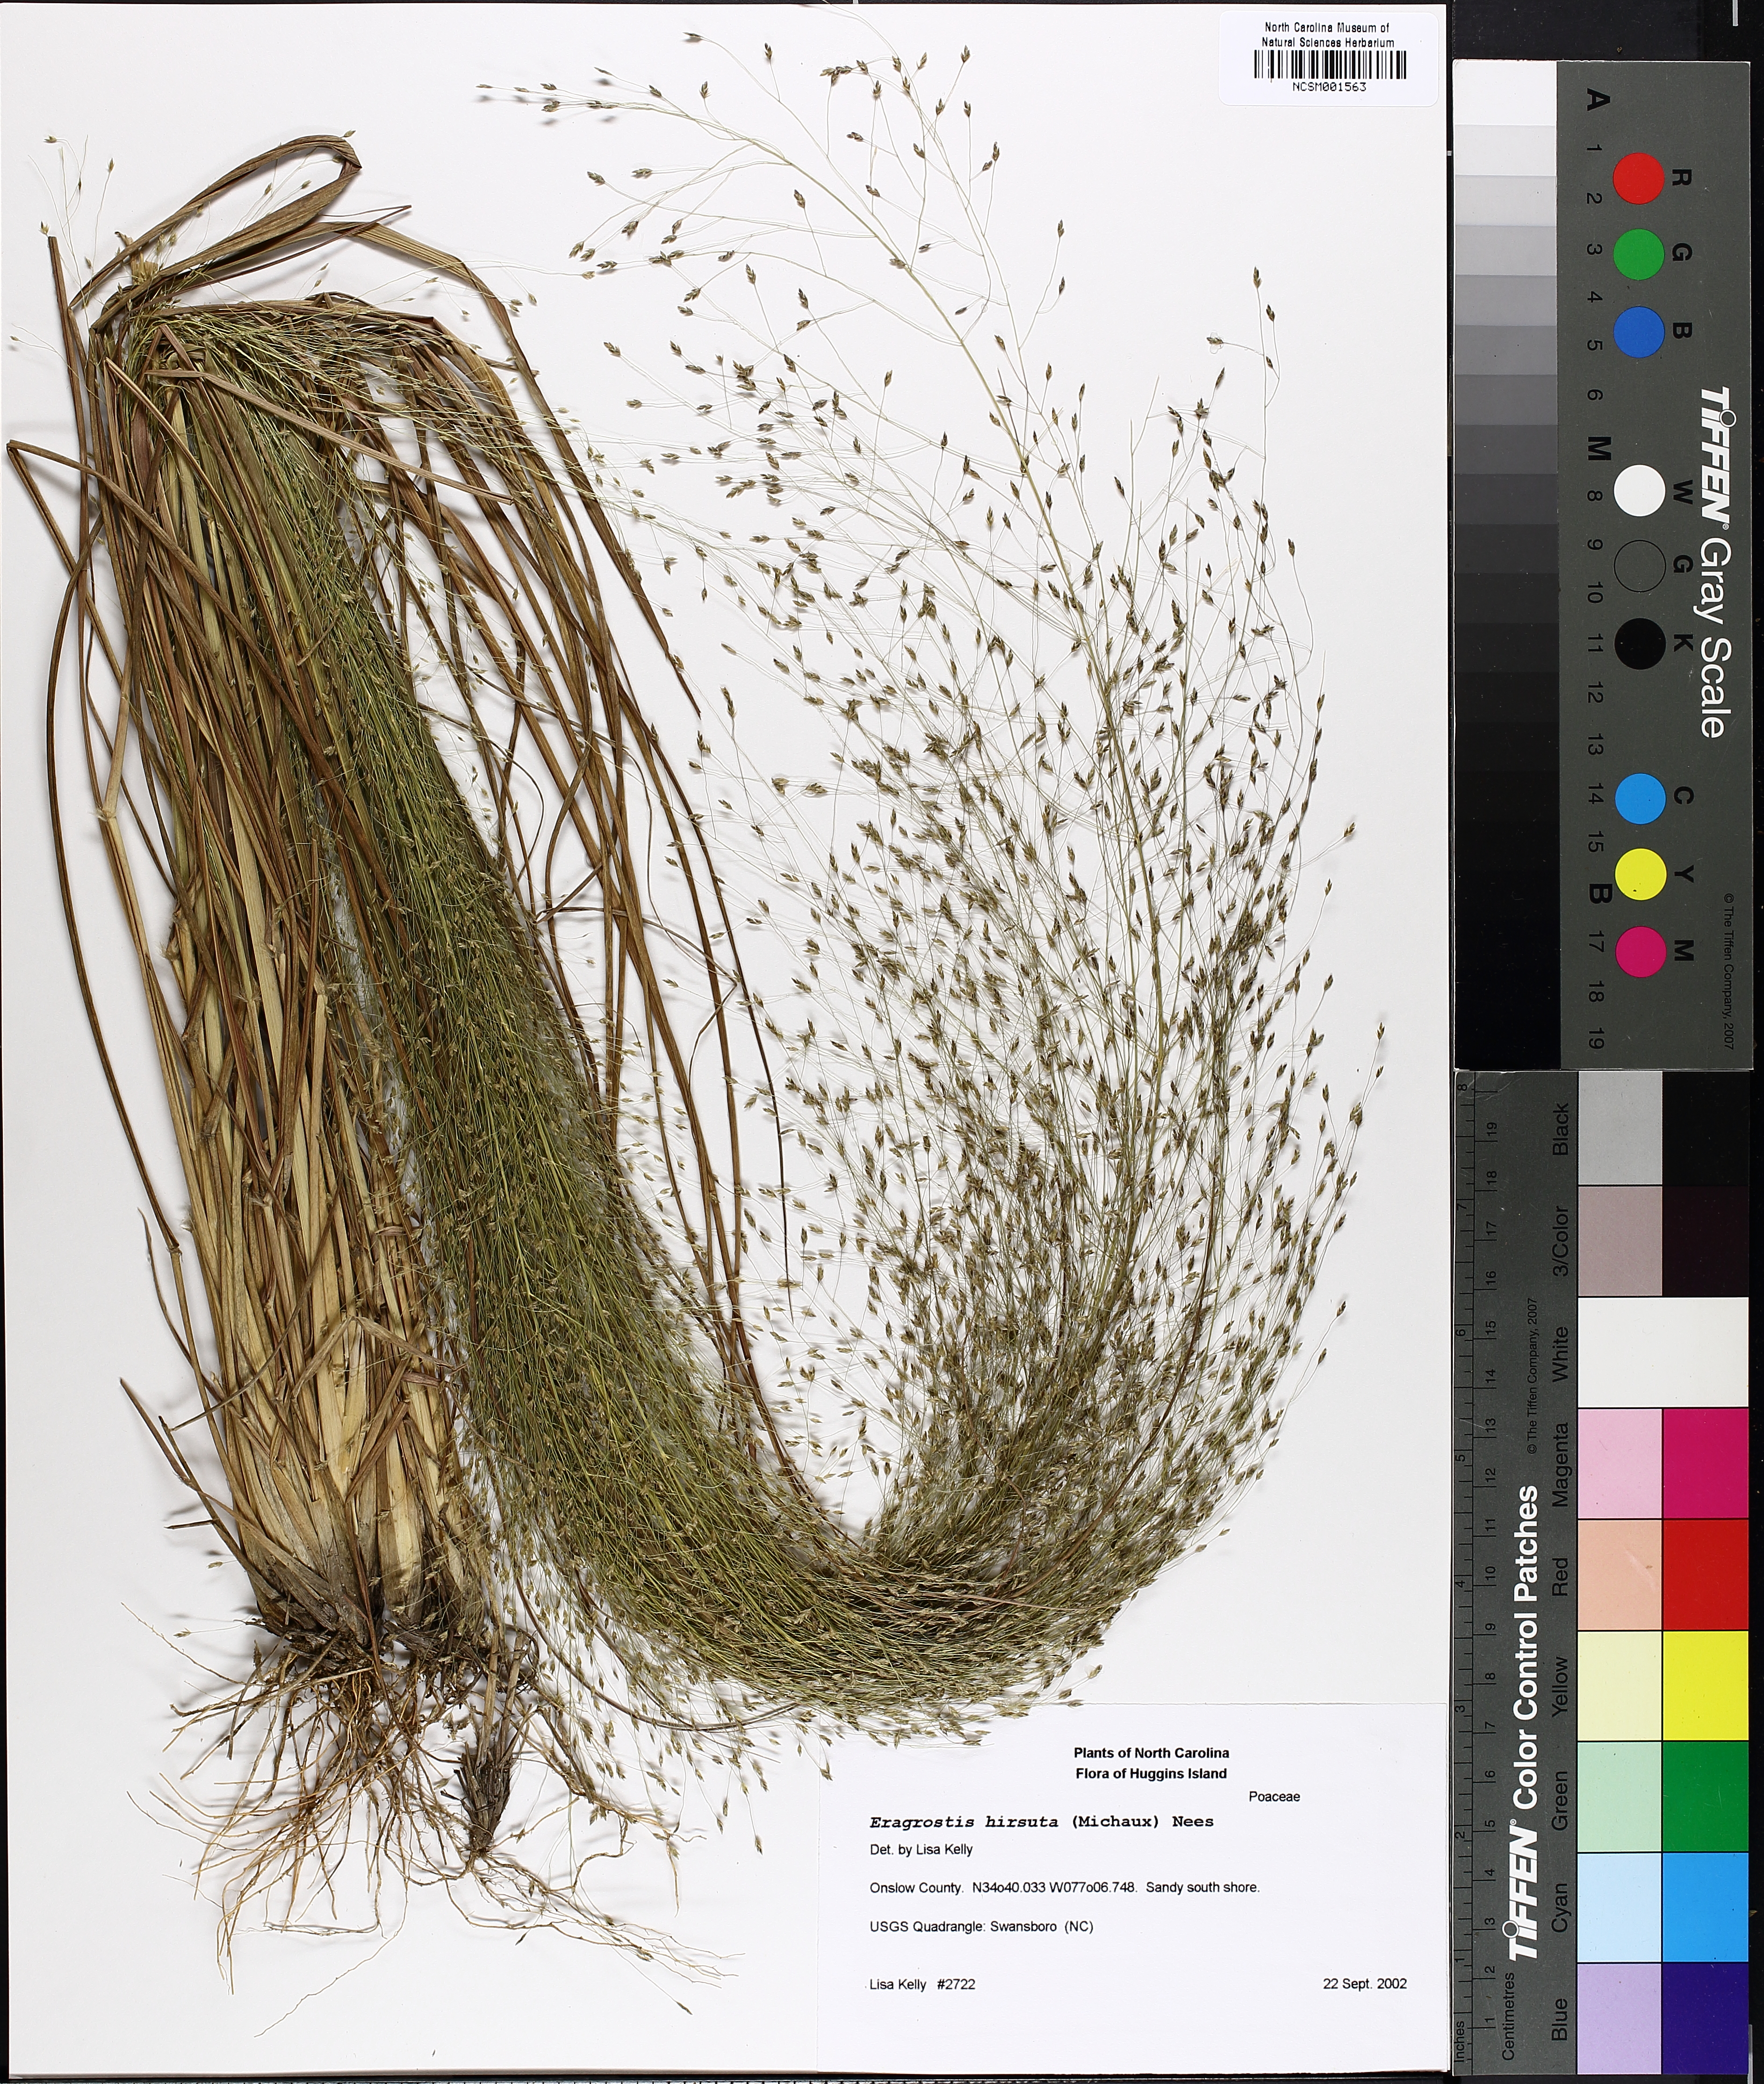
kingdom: Plantae
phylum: Tracheophyta
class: Liliopsida
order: Poales
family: Poaceae
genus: Eragrostis
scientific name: Eragrostis hirsuta
